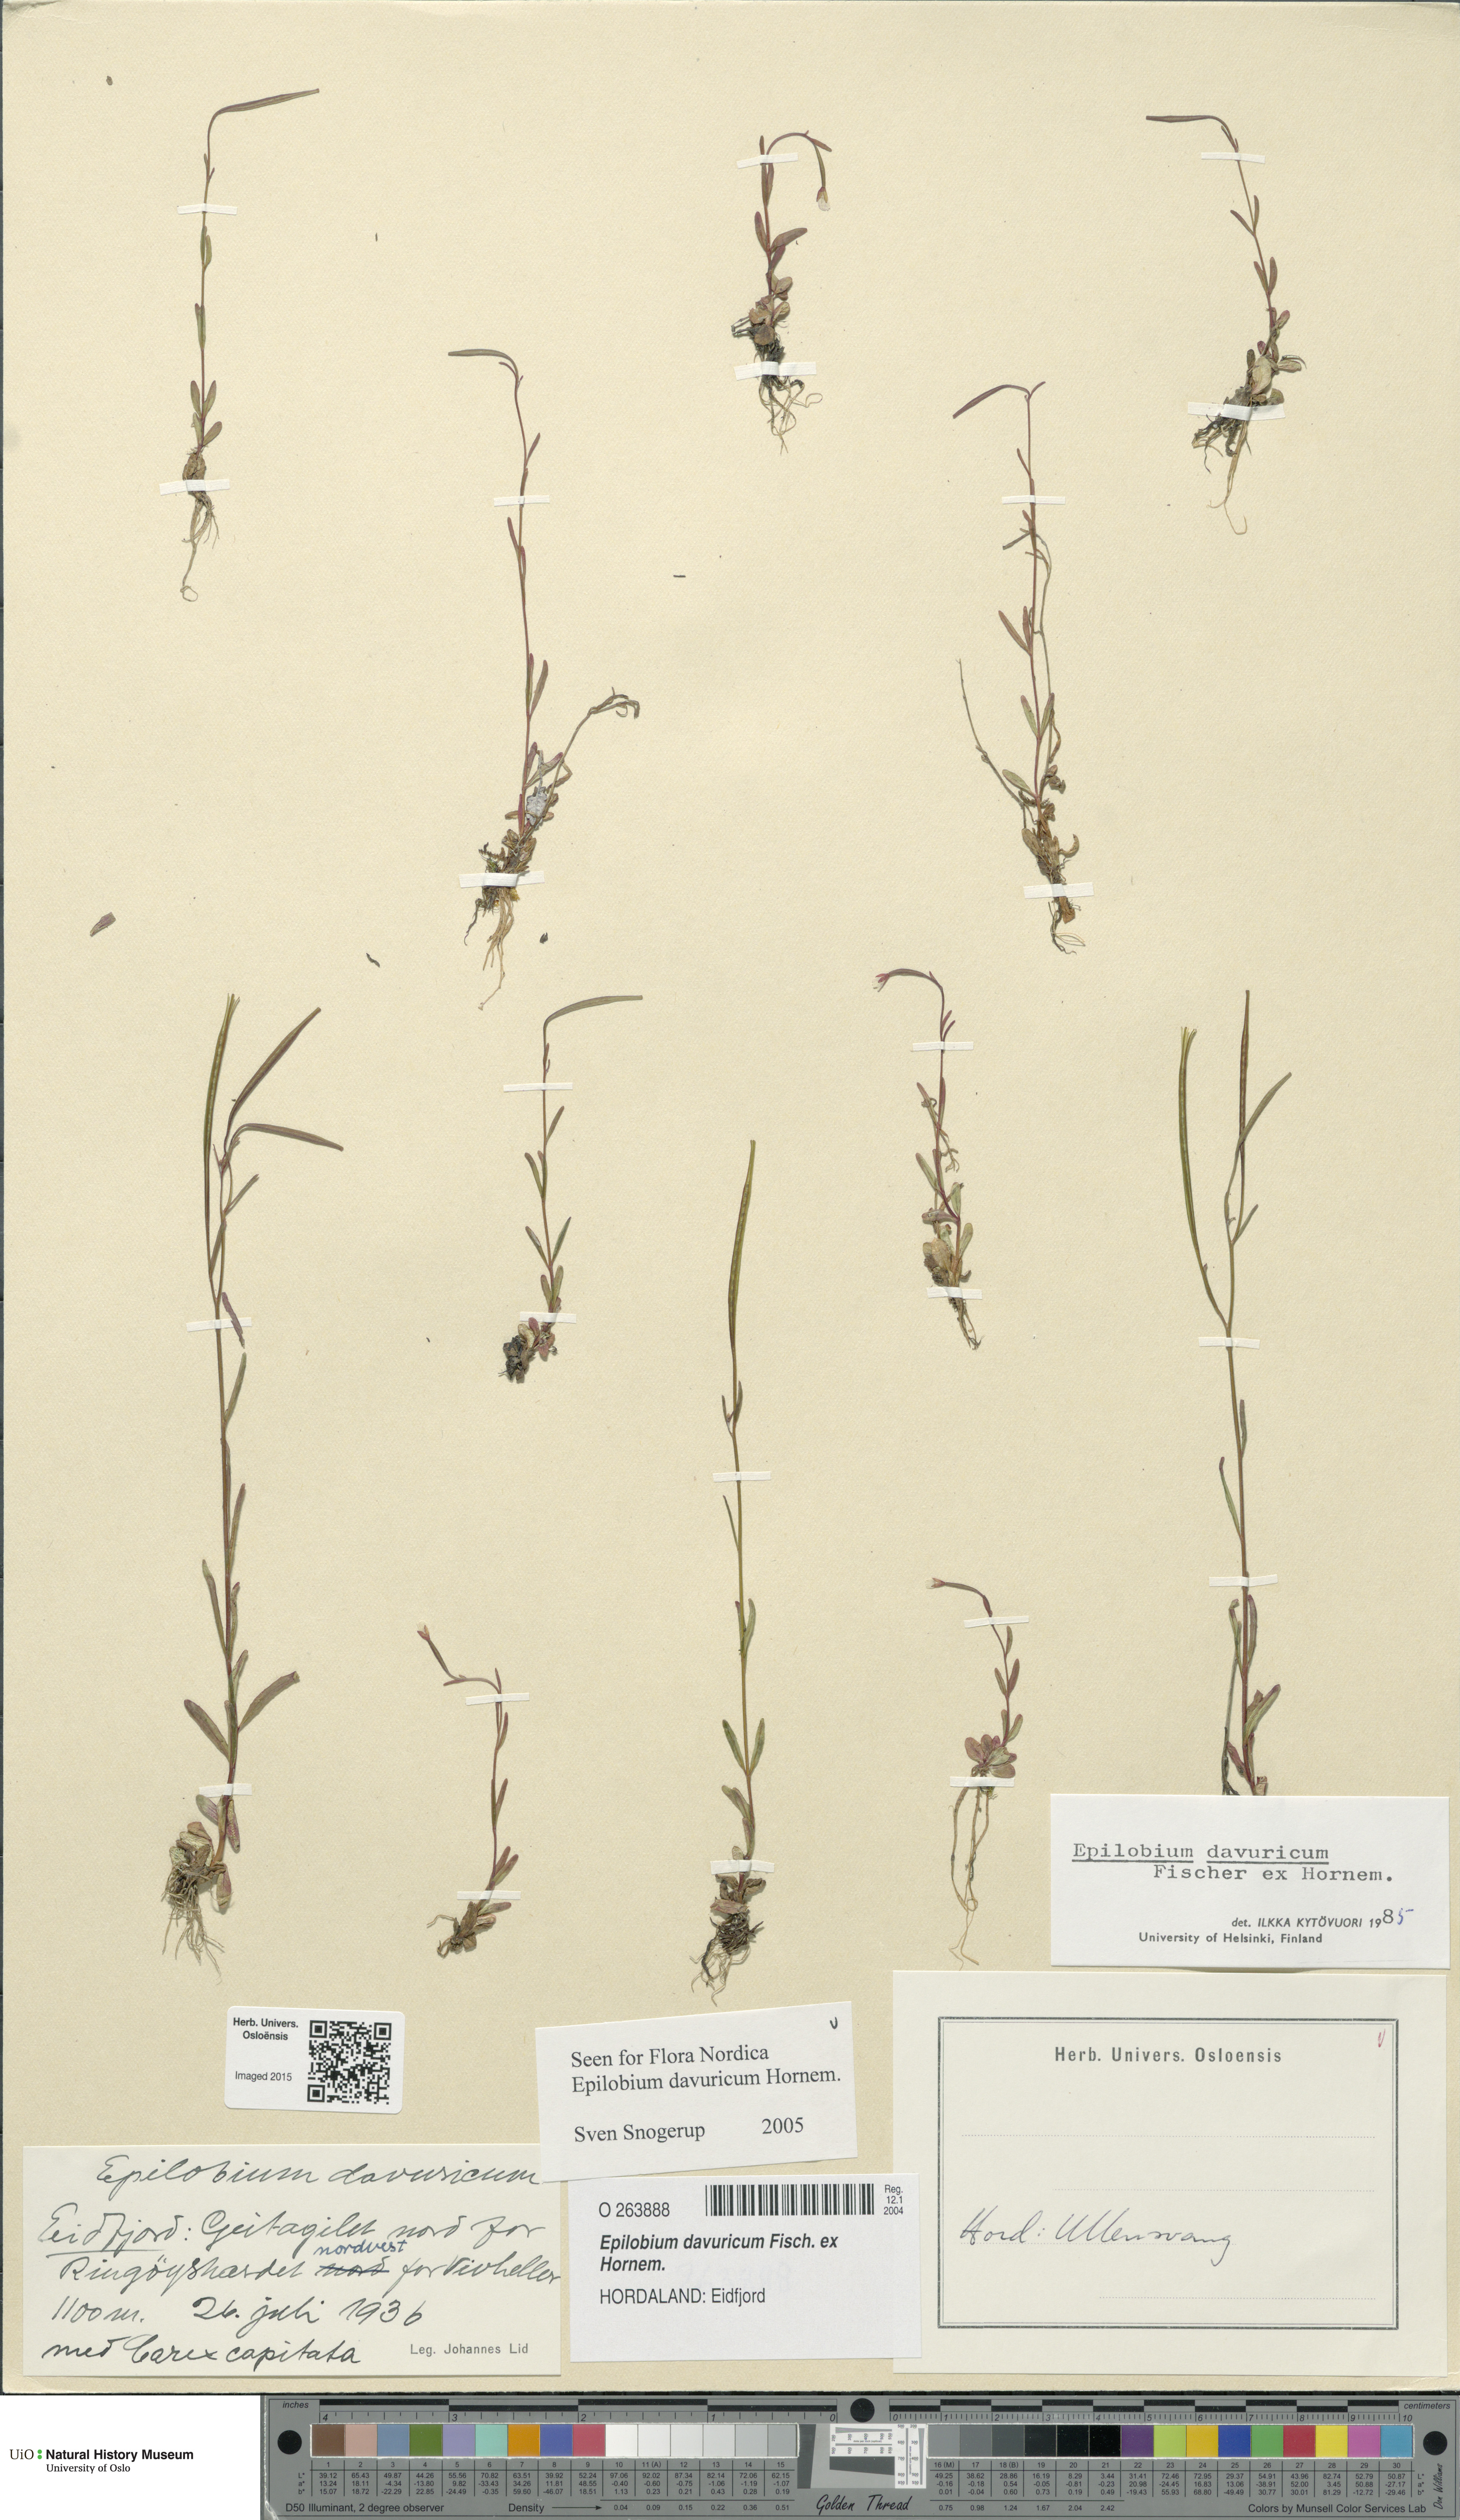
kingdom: Plantae
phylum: Tracheophyta
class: Magnoliopsida
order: Myrtales
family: Onagraceae
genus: Epilobium
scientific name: Epilobium davuricum
